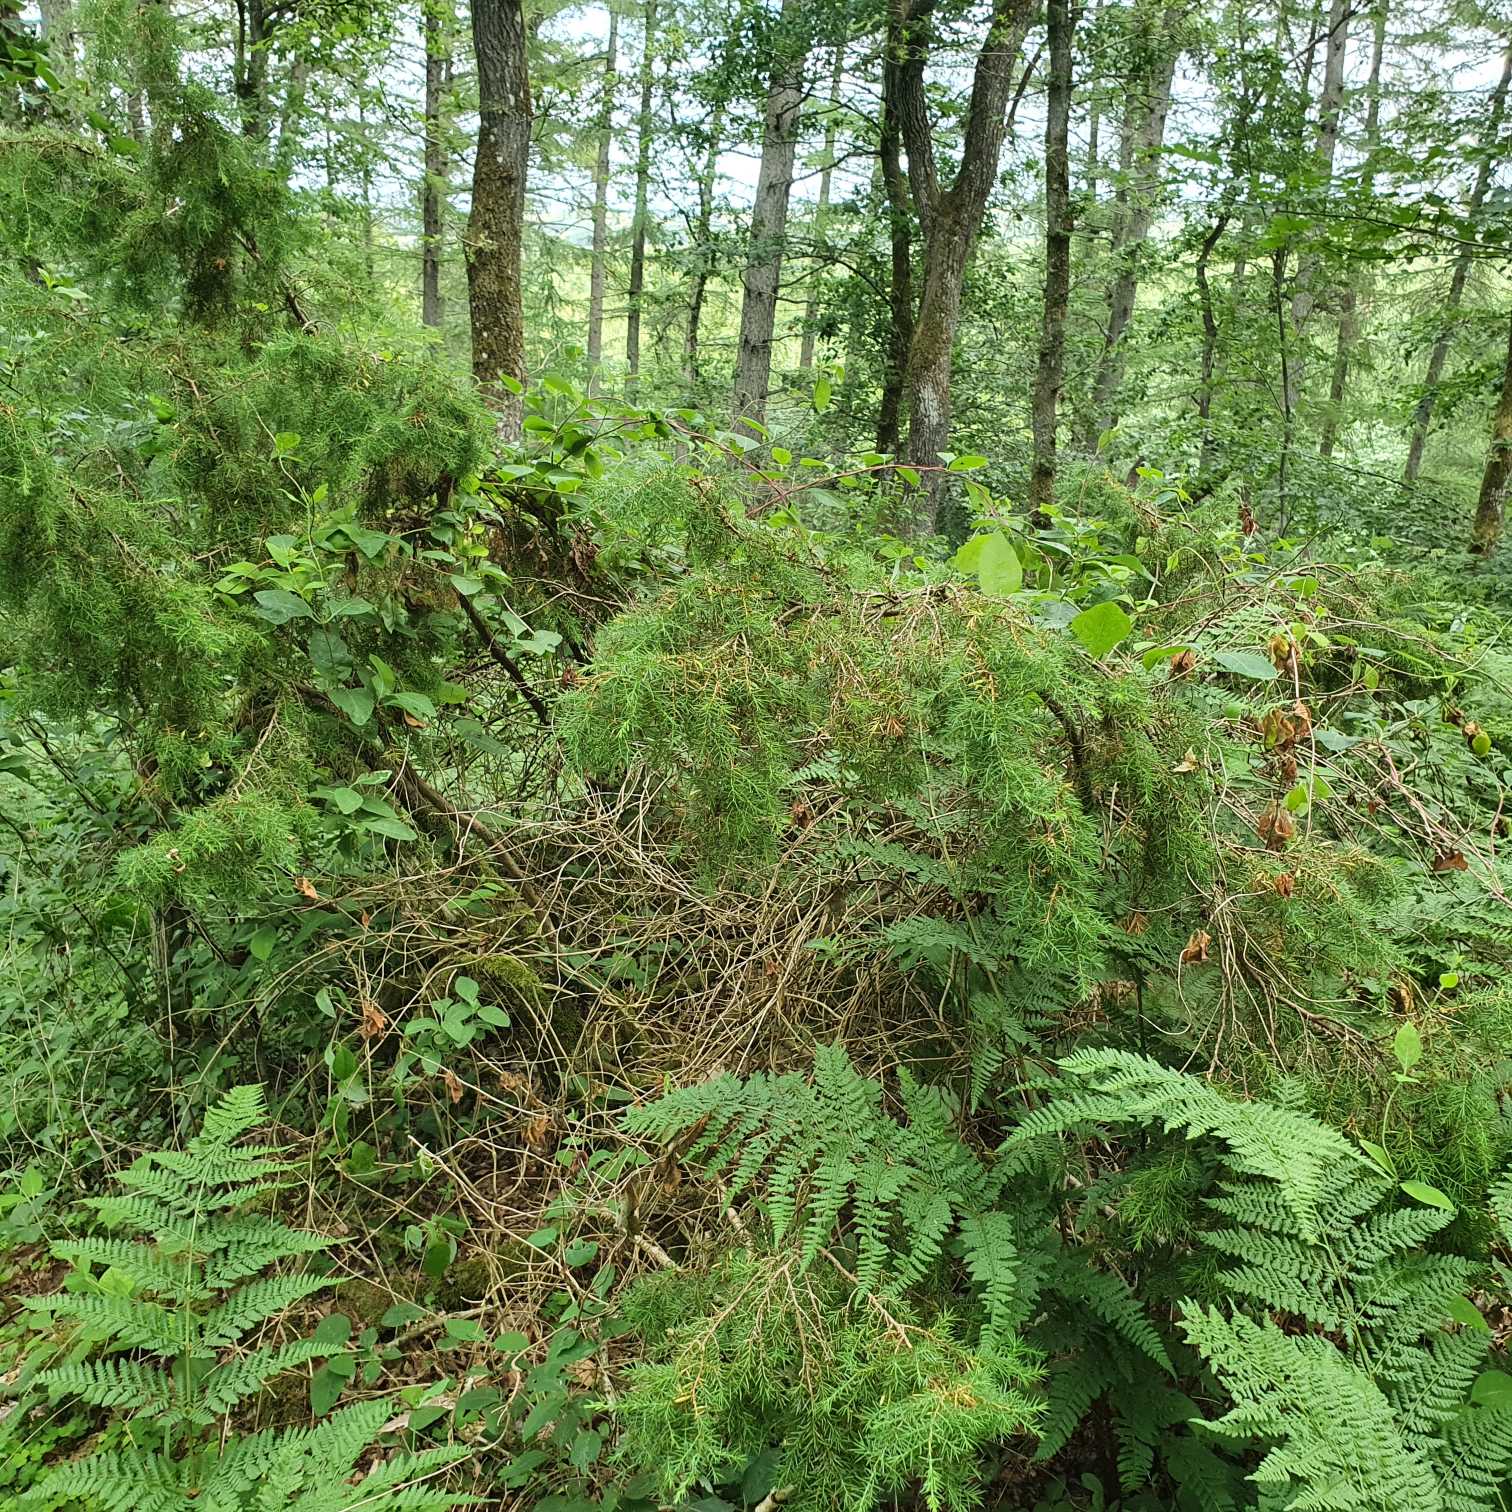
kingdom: Plantae
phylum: Tracheophyta
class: Pinopsida
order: Pinales
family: Cupressaceae
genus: Juniperus
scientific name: Juniperus communis
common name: Almindelig ene
